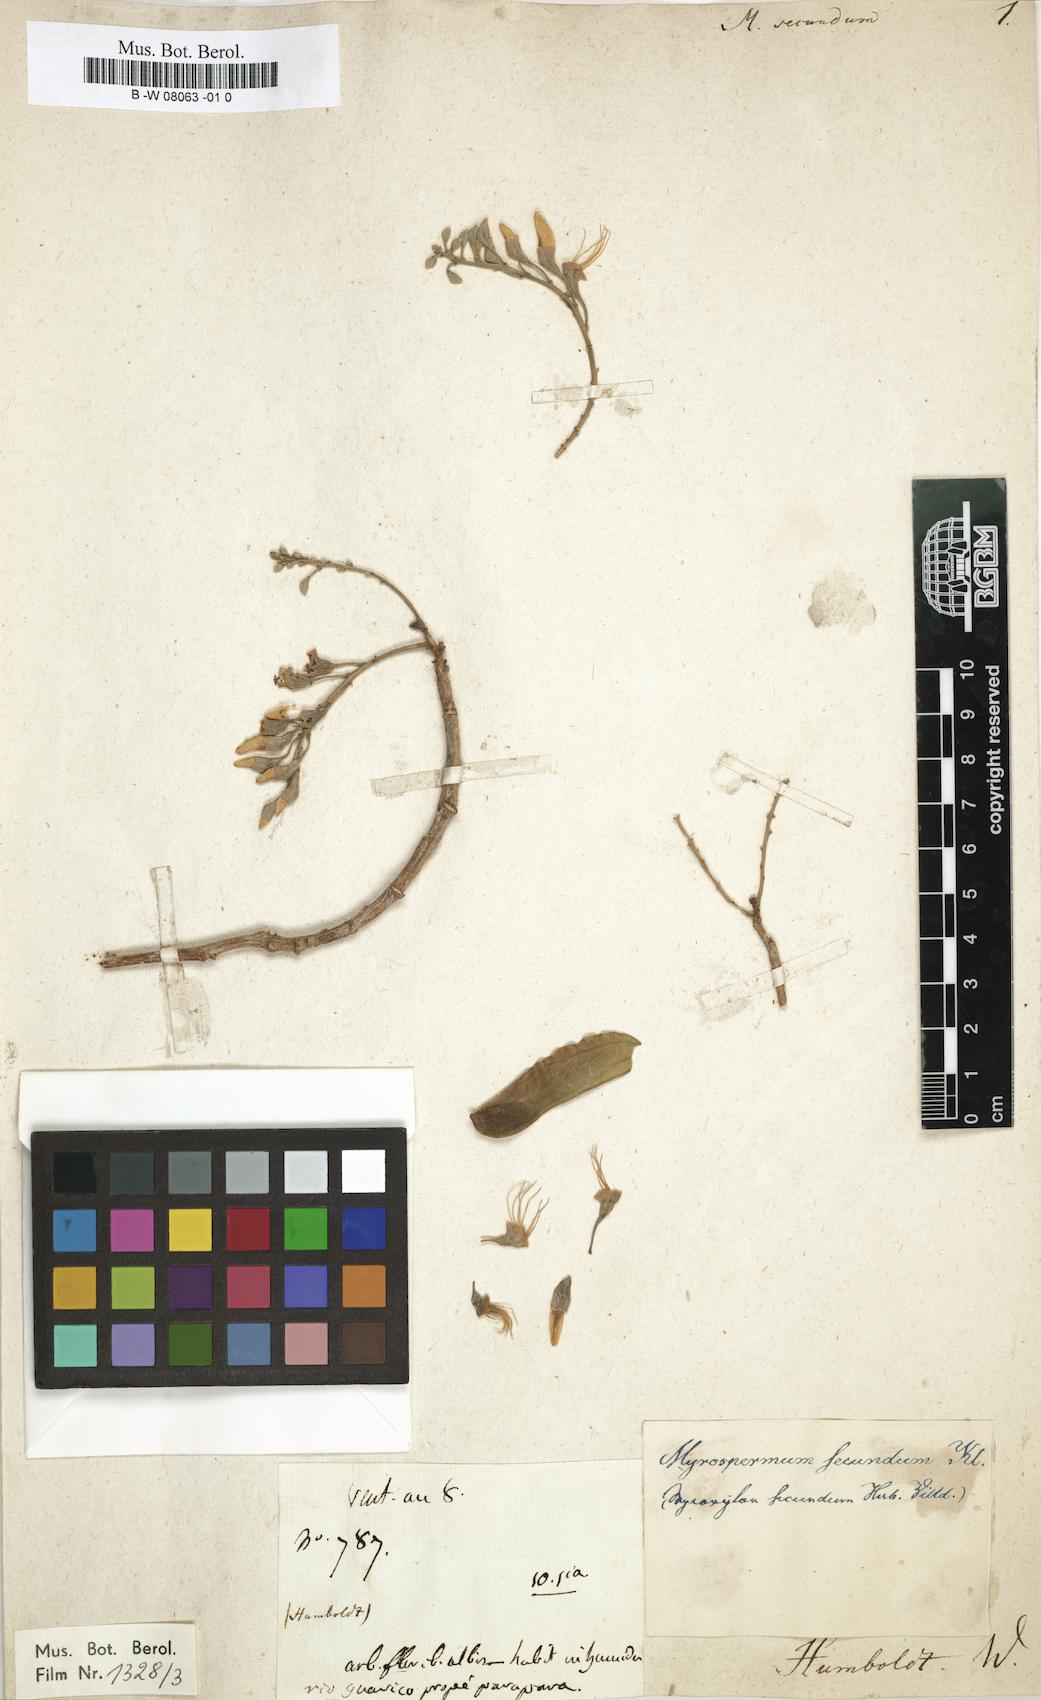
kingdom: Plantae
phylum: Tracheophyta
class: Magnoliopsida
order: Fabales
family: Fabaceae
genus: Myroxylon
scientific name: Myroxylon
